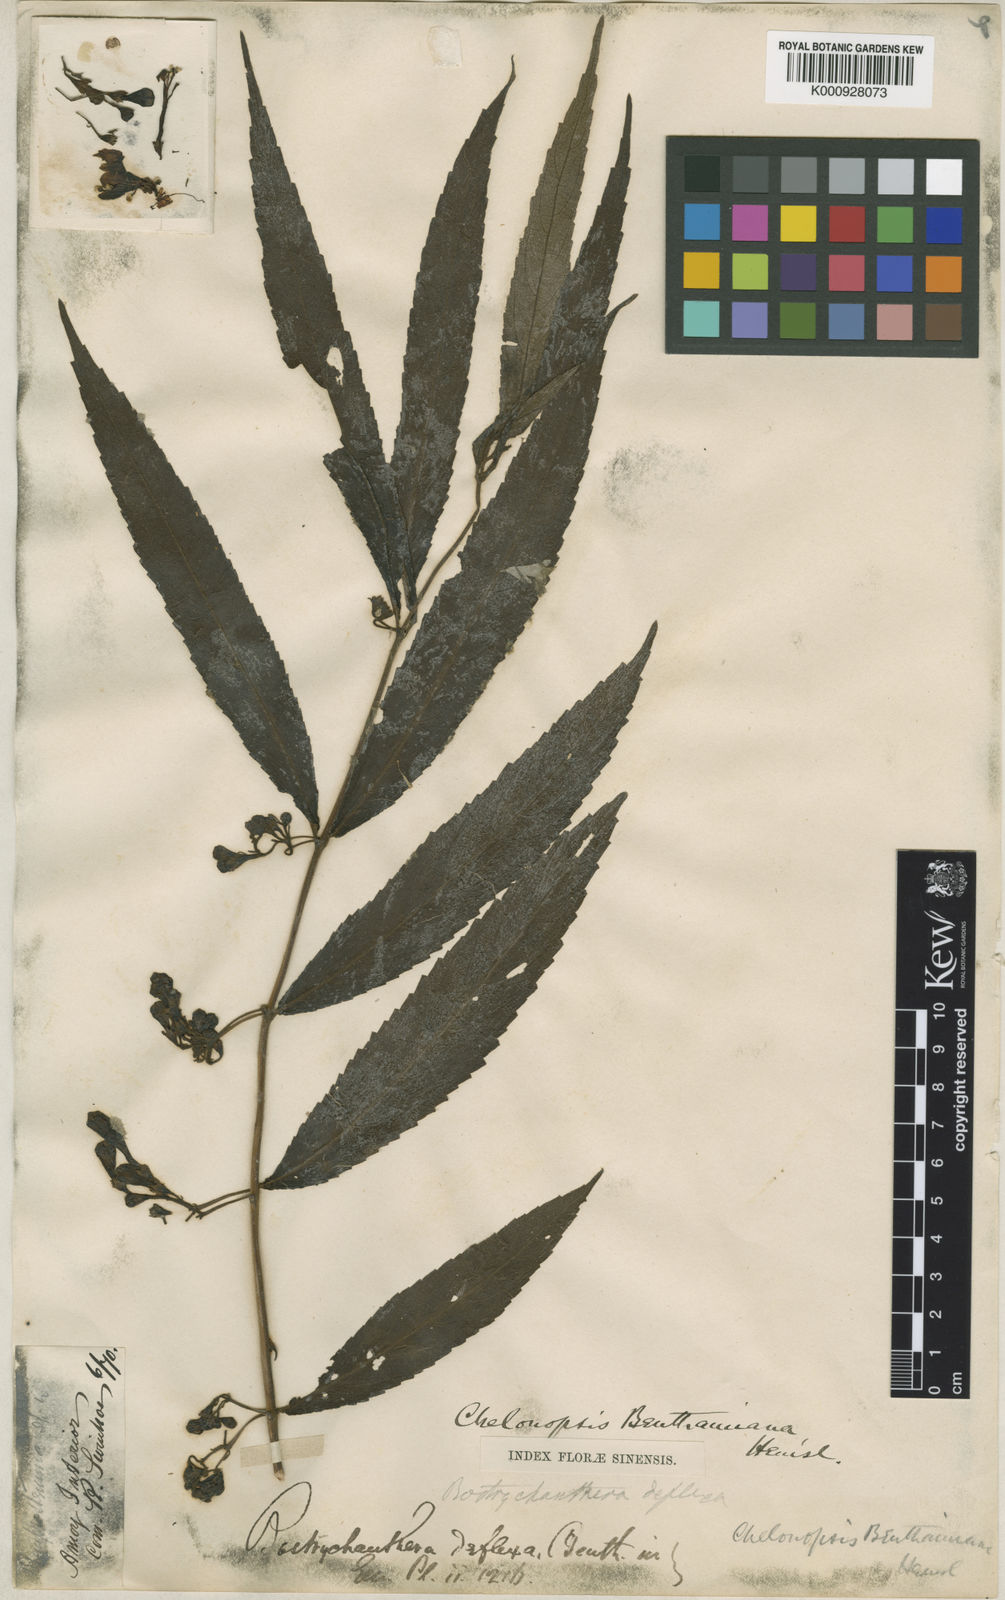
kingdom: Plantae
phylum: Tracheophyta
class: Magnoliopsida
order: Lamiales
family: Lamiaceae
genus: Chelonopsis
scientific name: Chelonopsis deflexa
